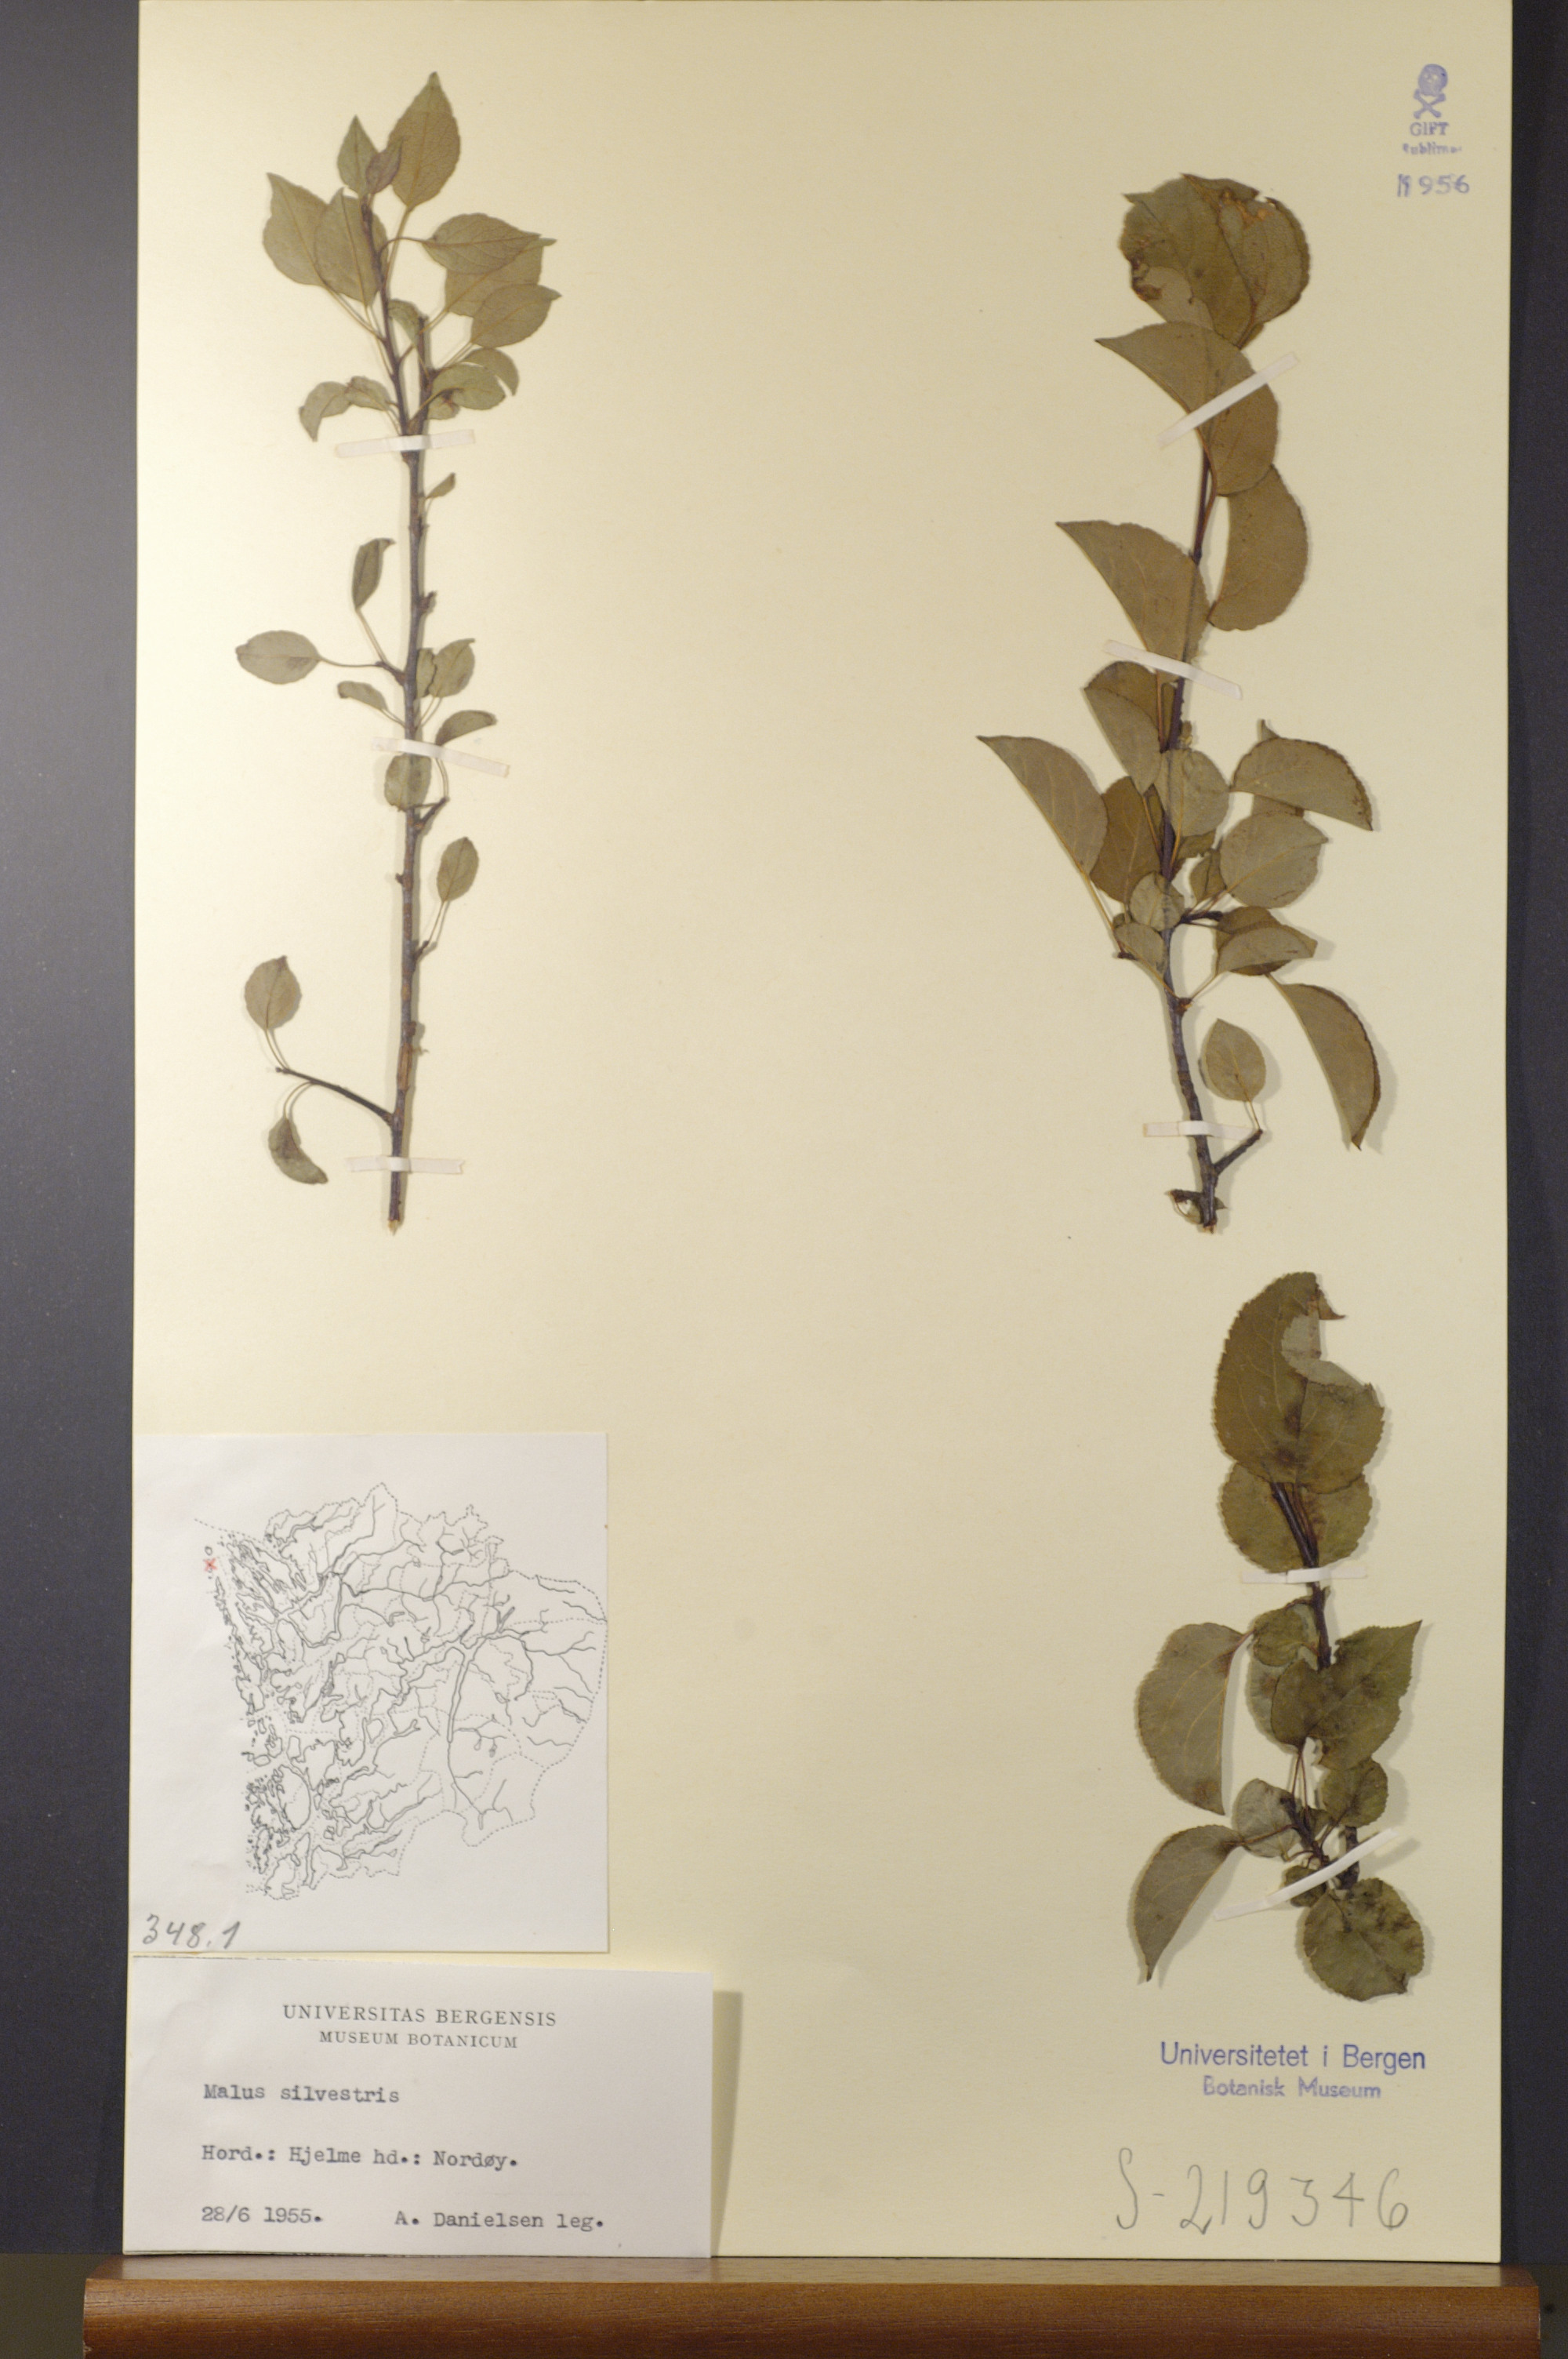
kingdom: Plantae
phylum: Tracheophyta
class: Magnoliopsida
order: Rosales
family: Rosaceae
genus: Malus
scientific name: Malus sylvestris
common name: Crab apple
